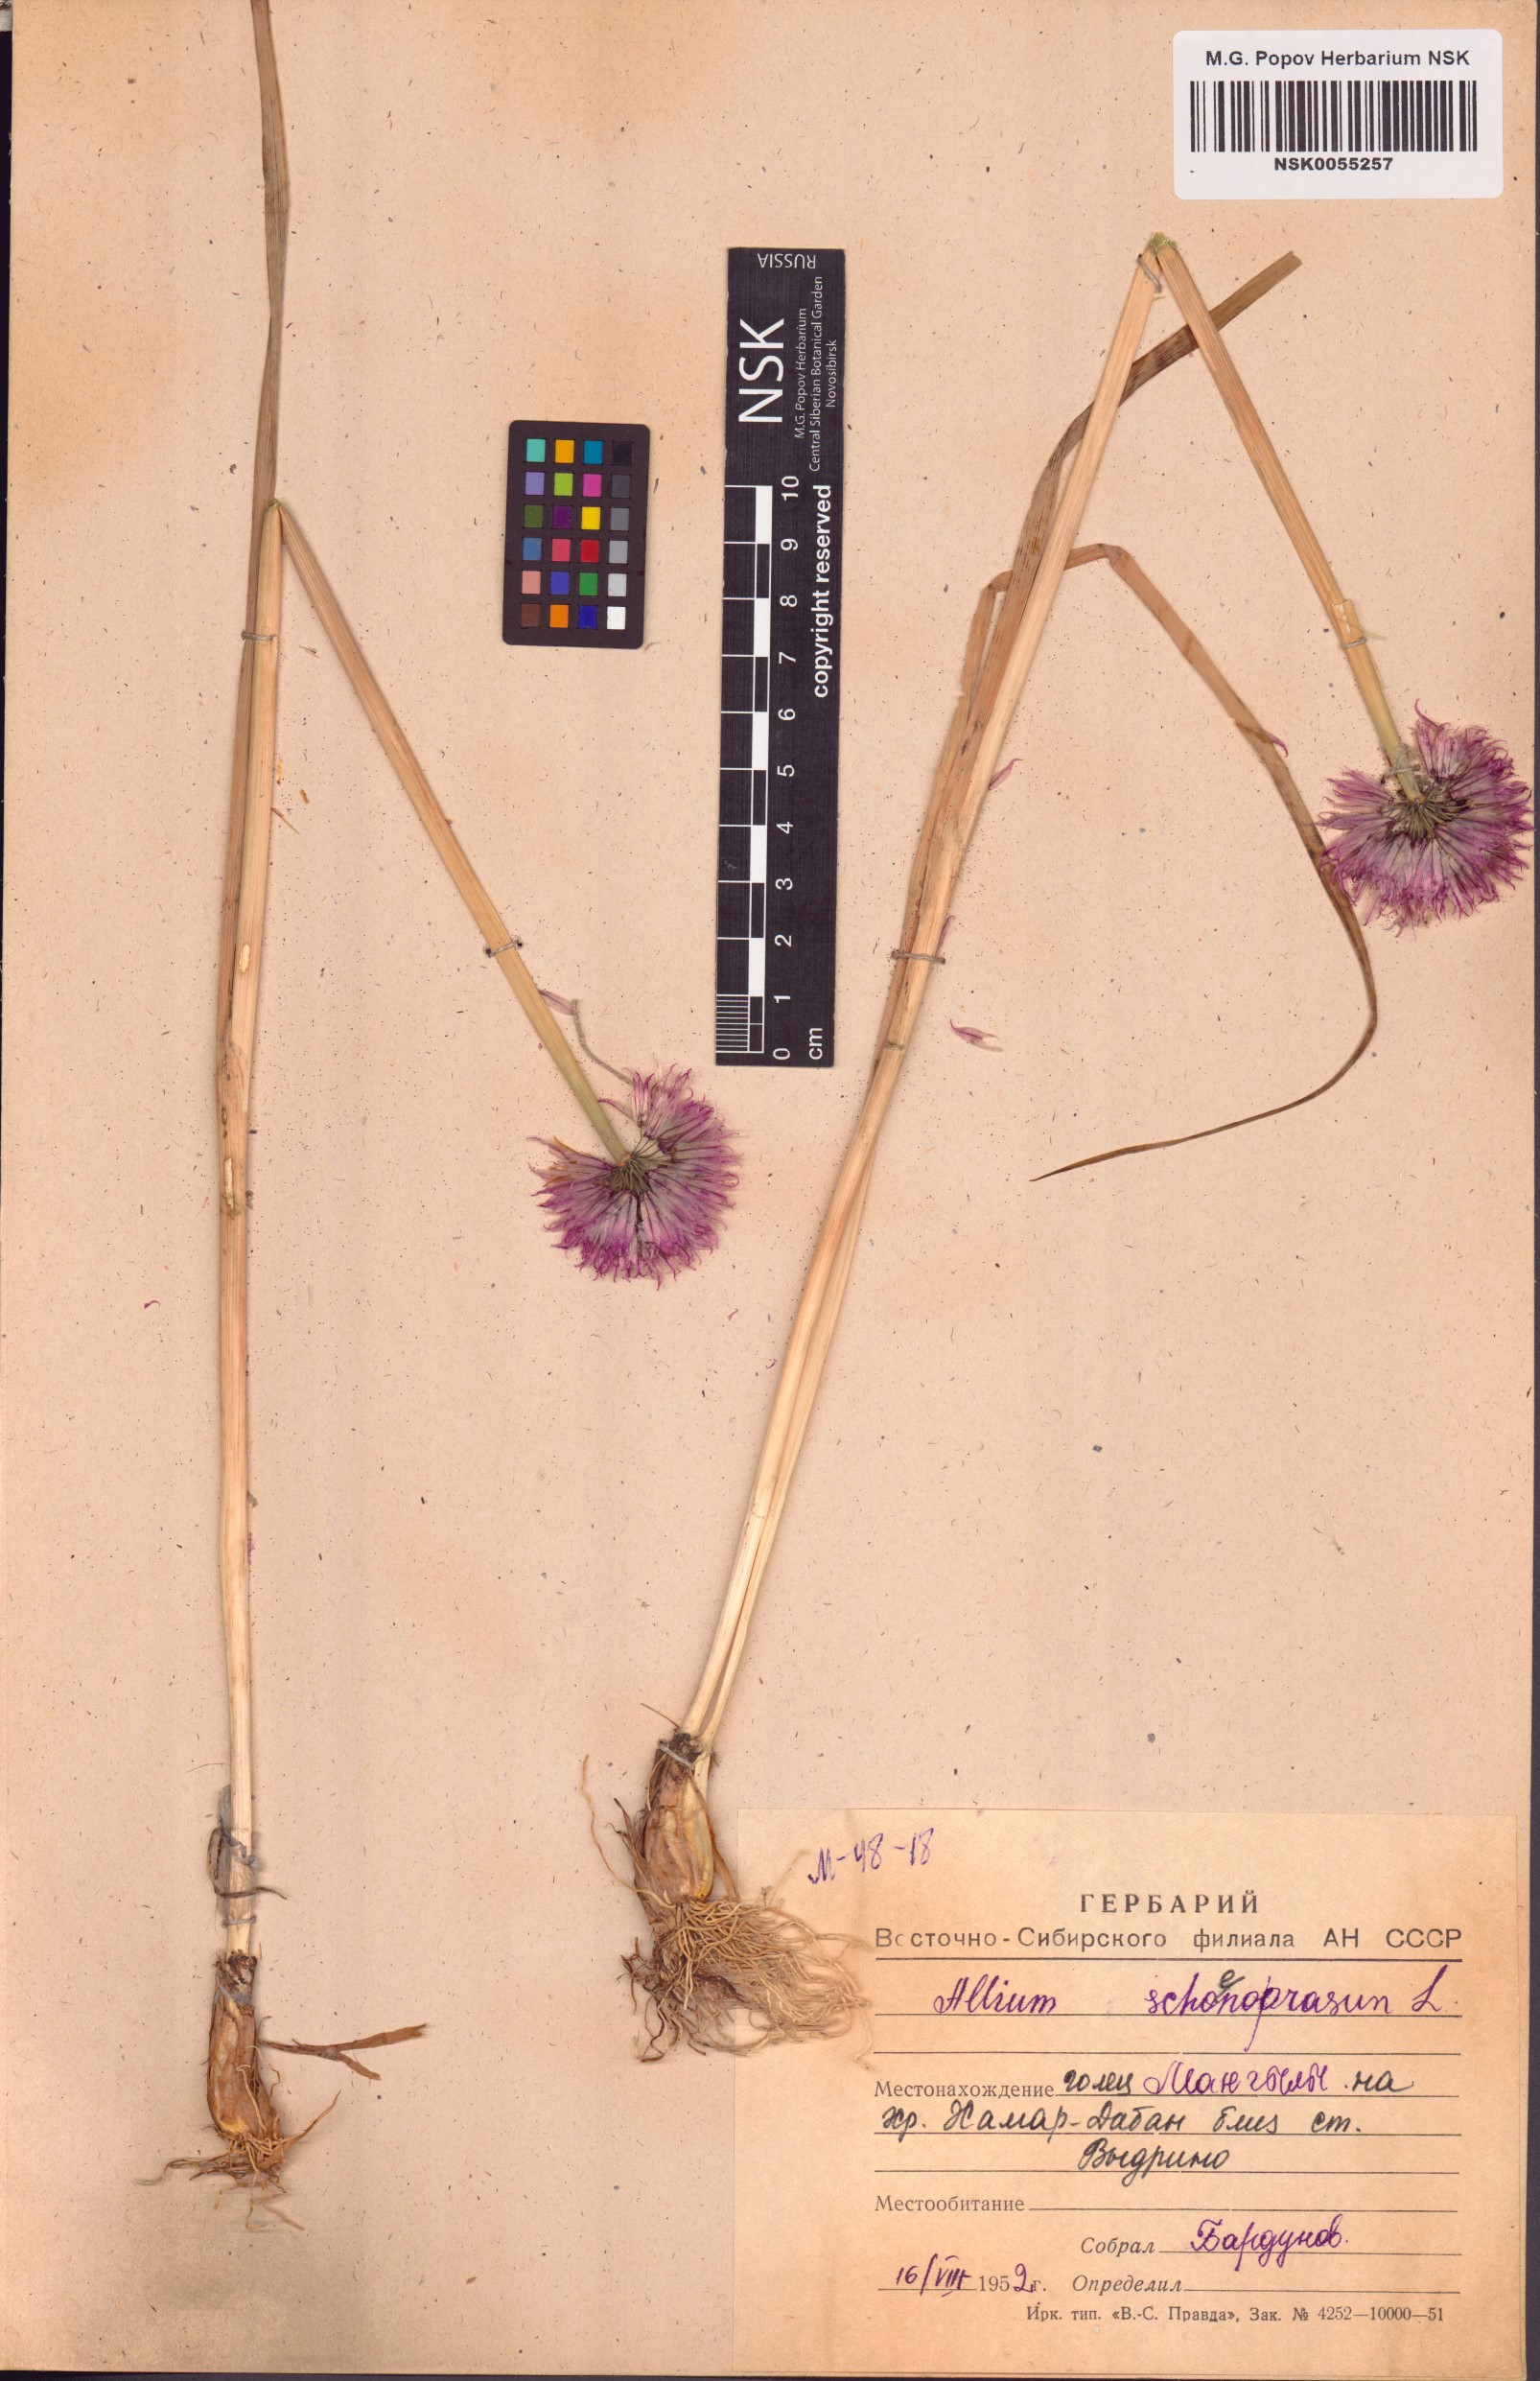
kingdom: Plantae
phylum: Tracheophyta
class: Liliopsida
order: Asparagales
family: Amaryllidaceae
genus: Allium
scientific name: Allium schoenoprasum
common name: Chives
